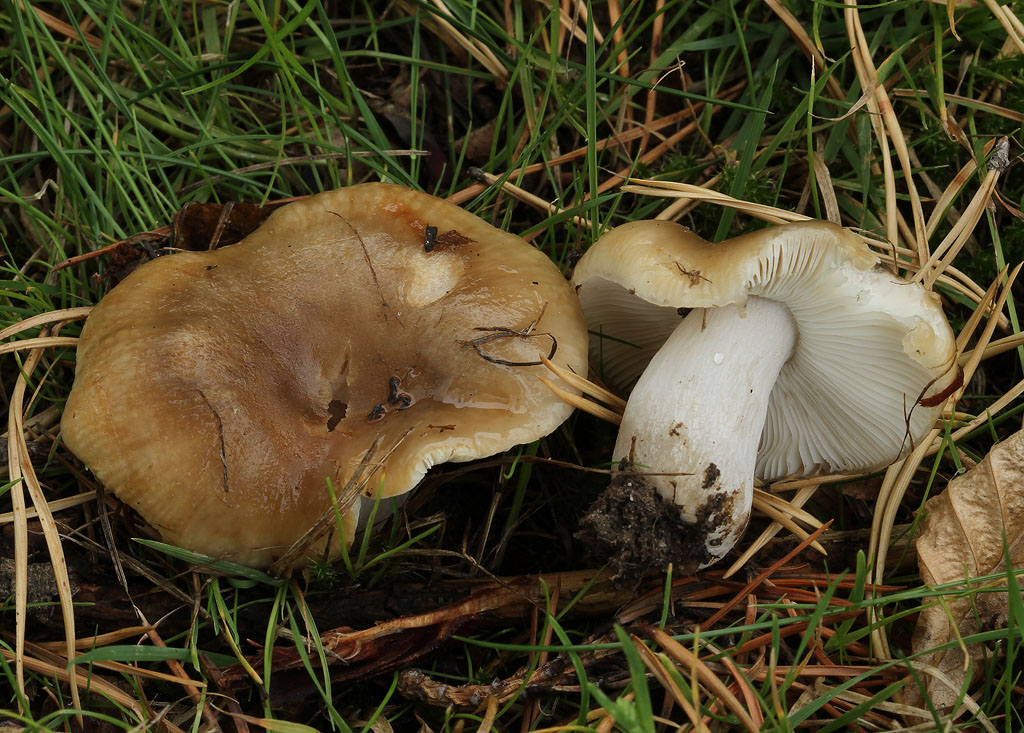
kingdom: Fungi
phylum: Basidiomycota
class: Agaricomycetes
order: Russulales
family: Russulaceae
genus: Russula
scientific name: Russula recondita
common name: mild kam-skørhat
